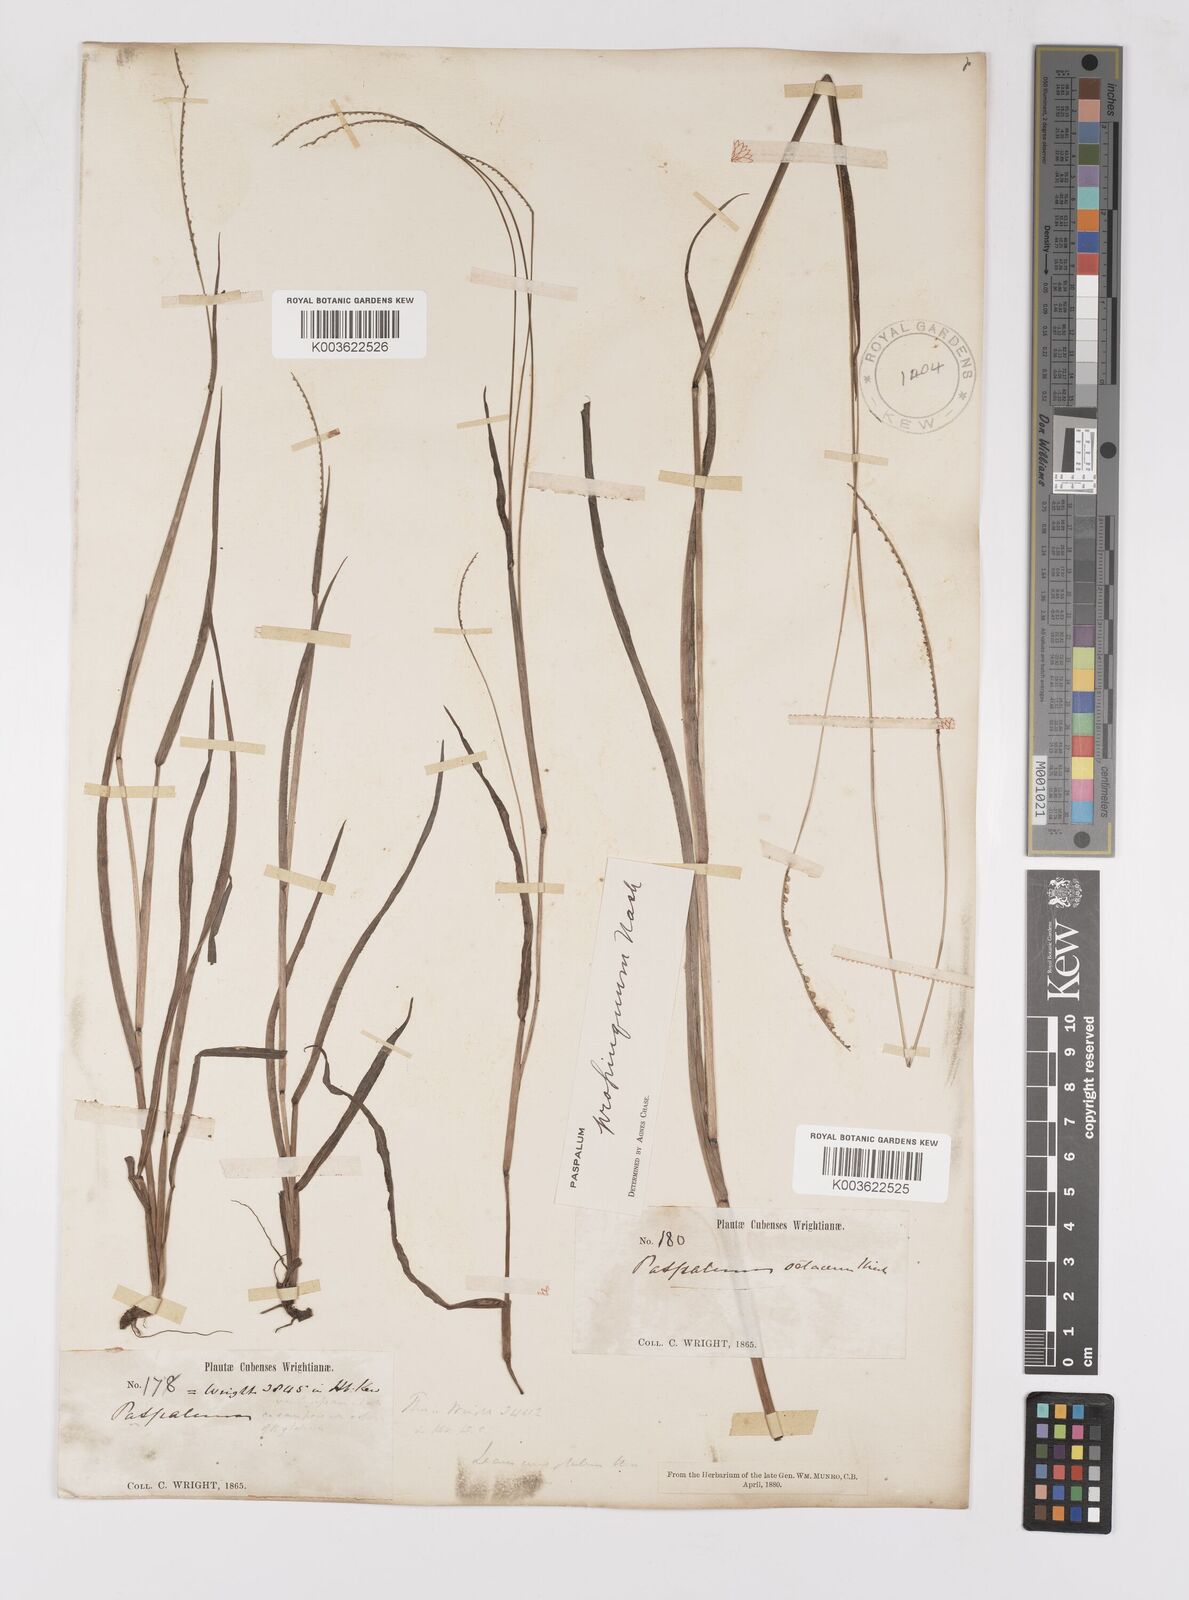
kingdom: Plantae
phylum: Tracheophyta
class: Liliopsida
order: Poales
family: Poaceae
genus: Paspalum
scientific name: Paspalum setaceum
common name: Slender paspalum
